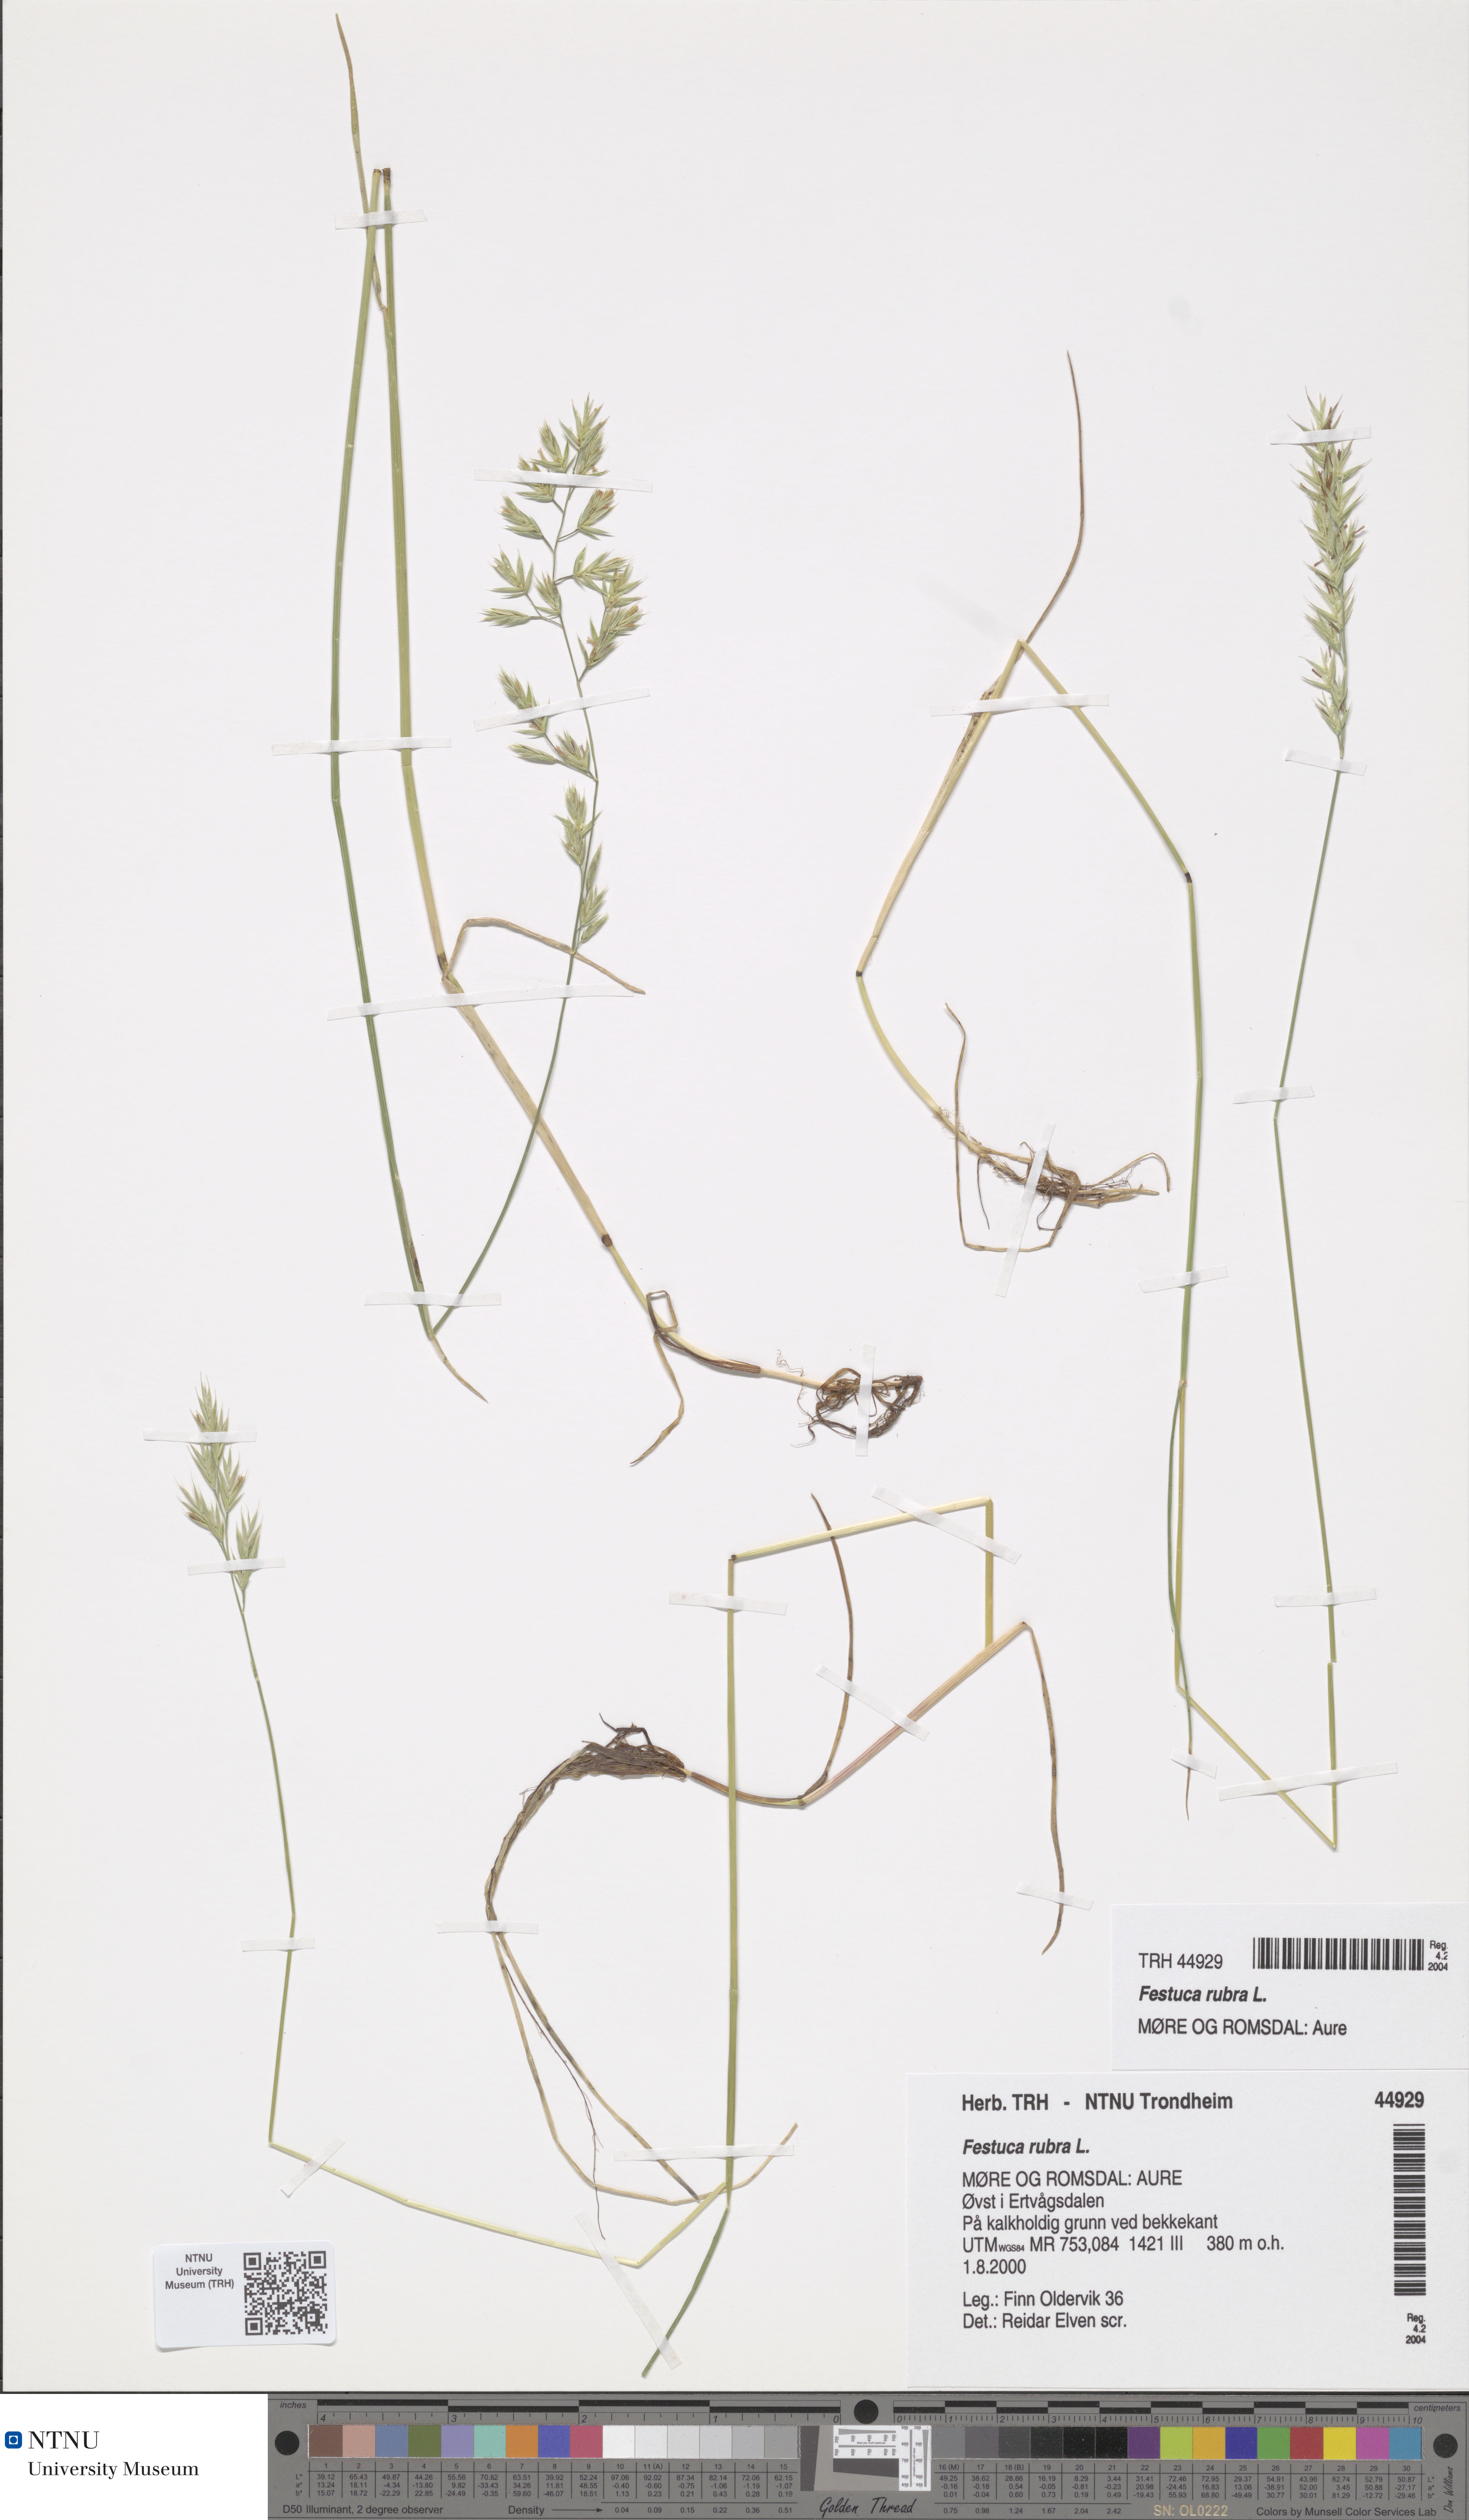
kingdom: Plantae
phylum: Tracheophyta
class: Liliopsida
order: Poales
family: Poaceae
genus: Festuca
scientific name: Festuca rubra
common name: Red fescue
